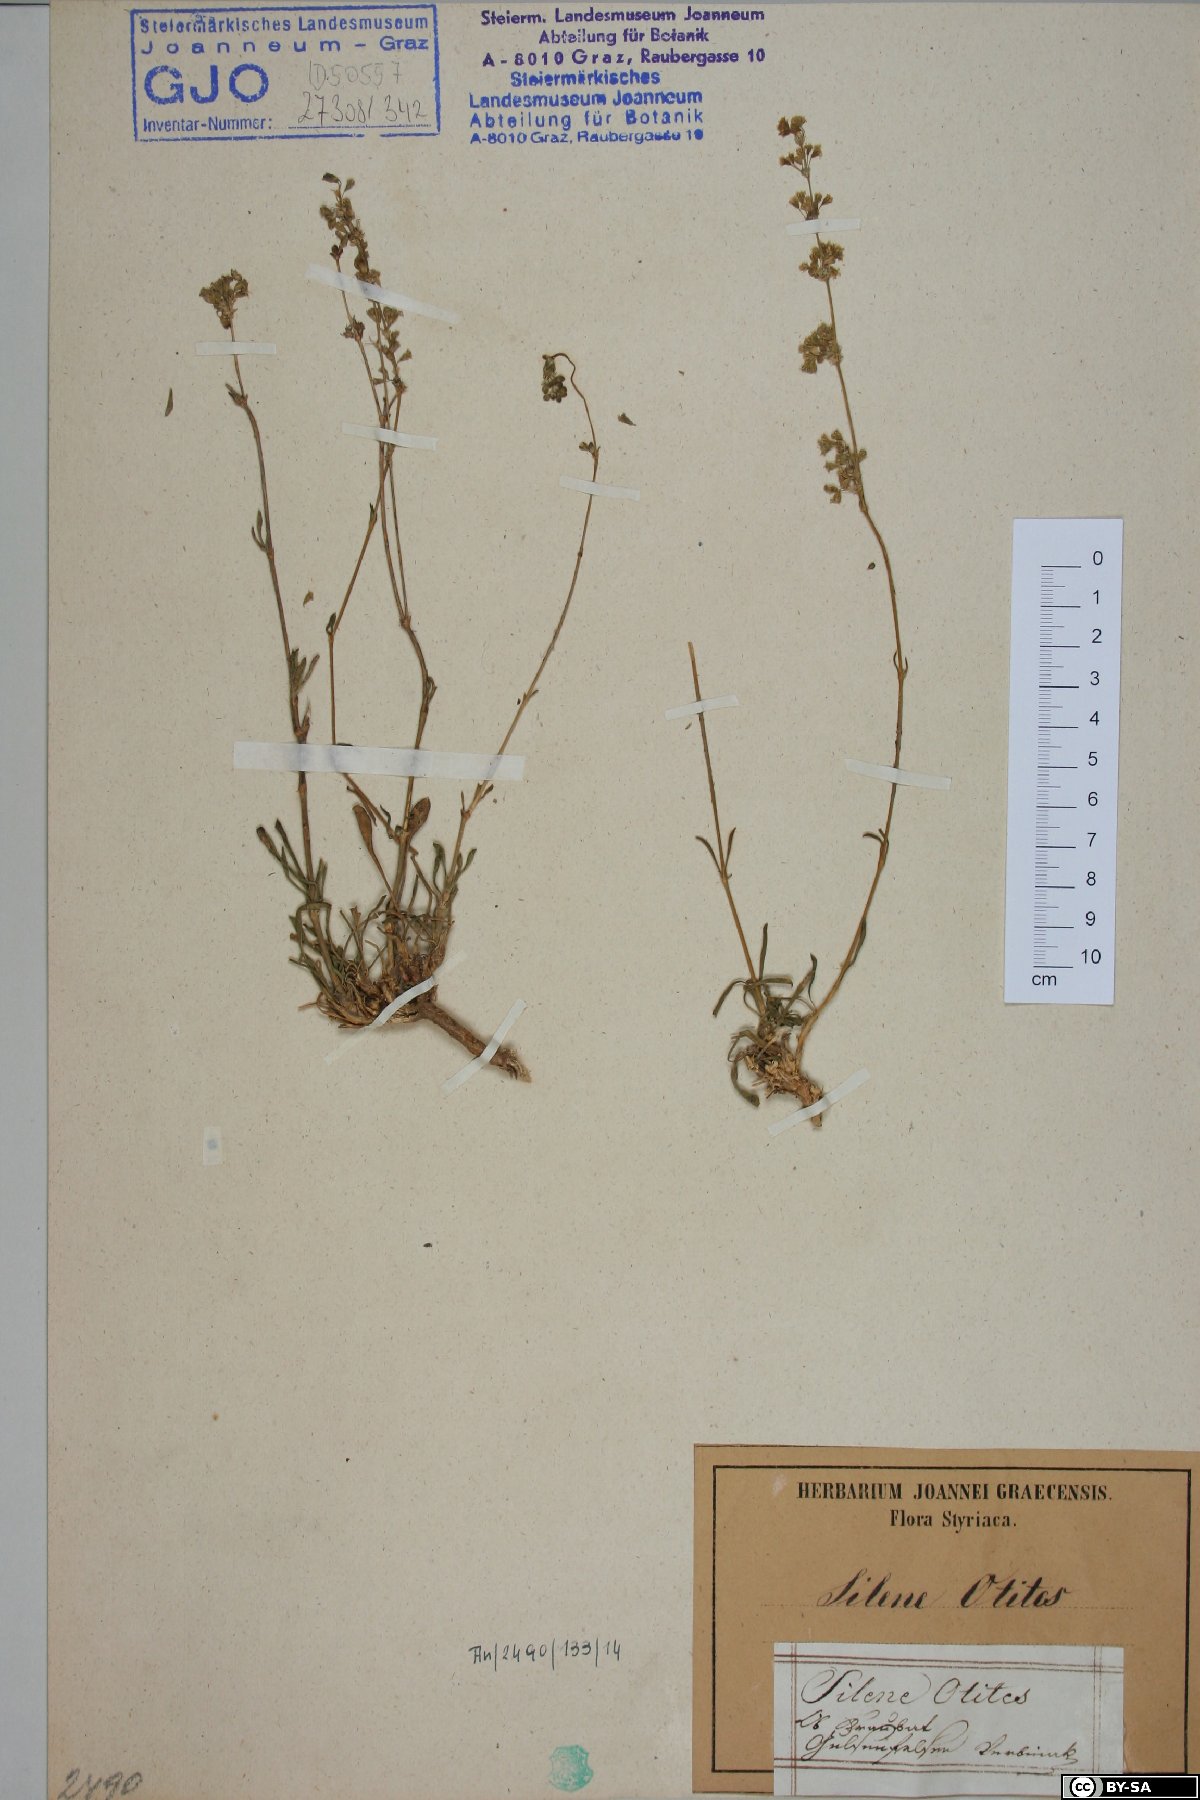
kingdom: Plantae
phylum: Tracheophyta
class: Magnoliopsida
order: Caryophyllales
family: Caryophyllaceae
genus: Silene
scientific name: Silene otites
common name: Spanish catchfly
